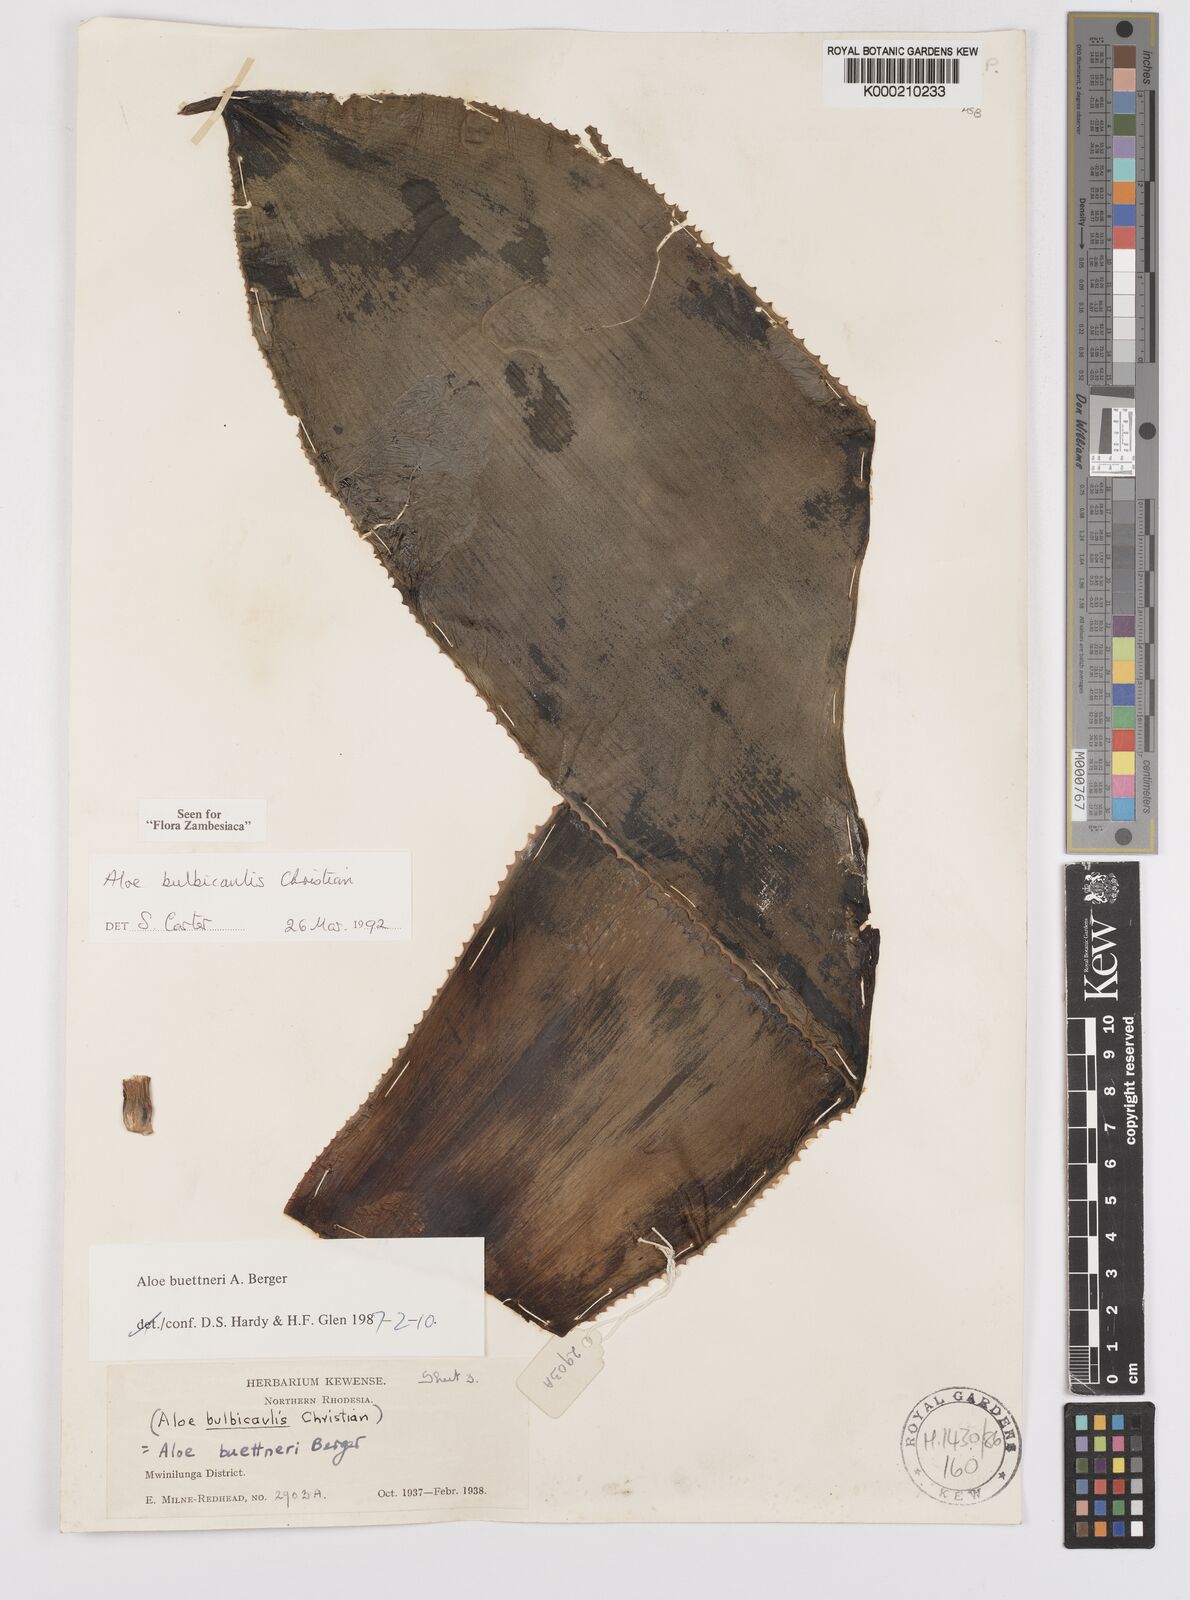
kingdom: Plantae
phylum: Tracheophyta
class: Liliopsida
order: Asparagales
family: Asphodelaceae
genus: Aloe
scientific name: Aloe bulbicaulis
